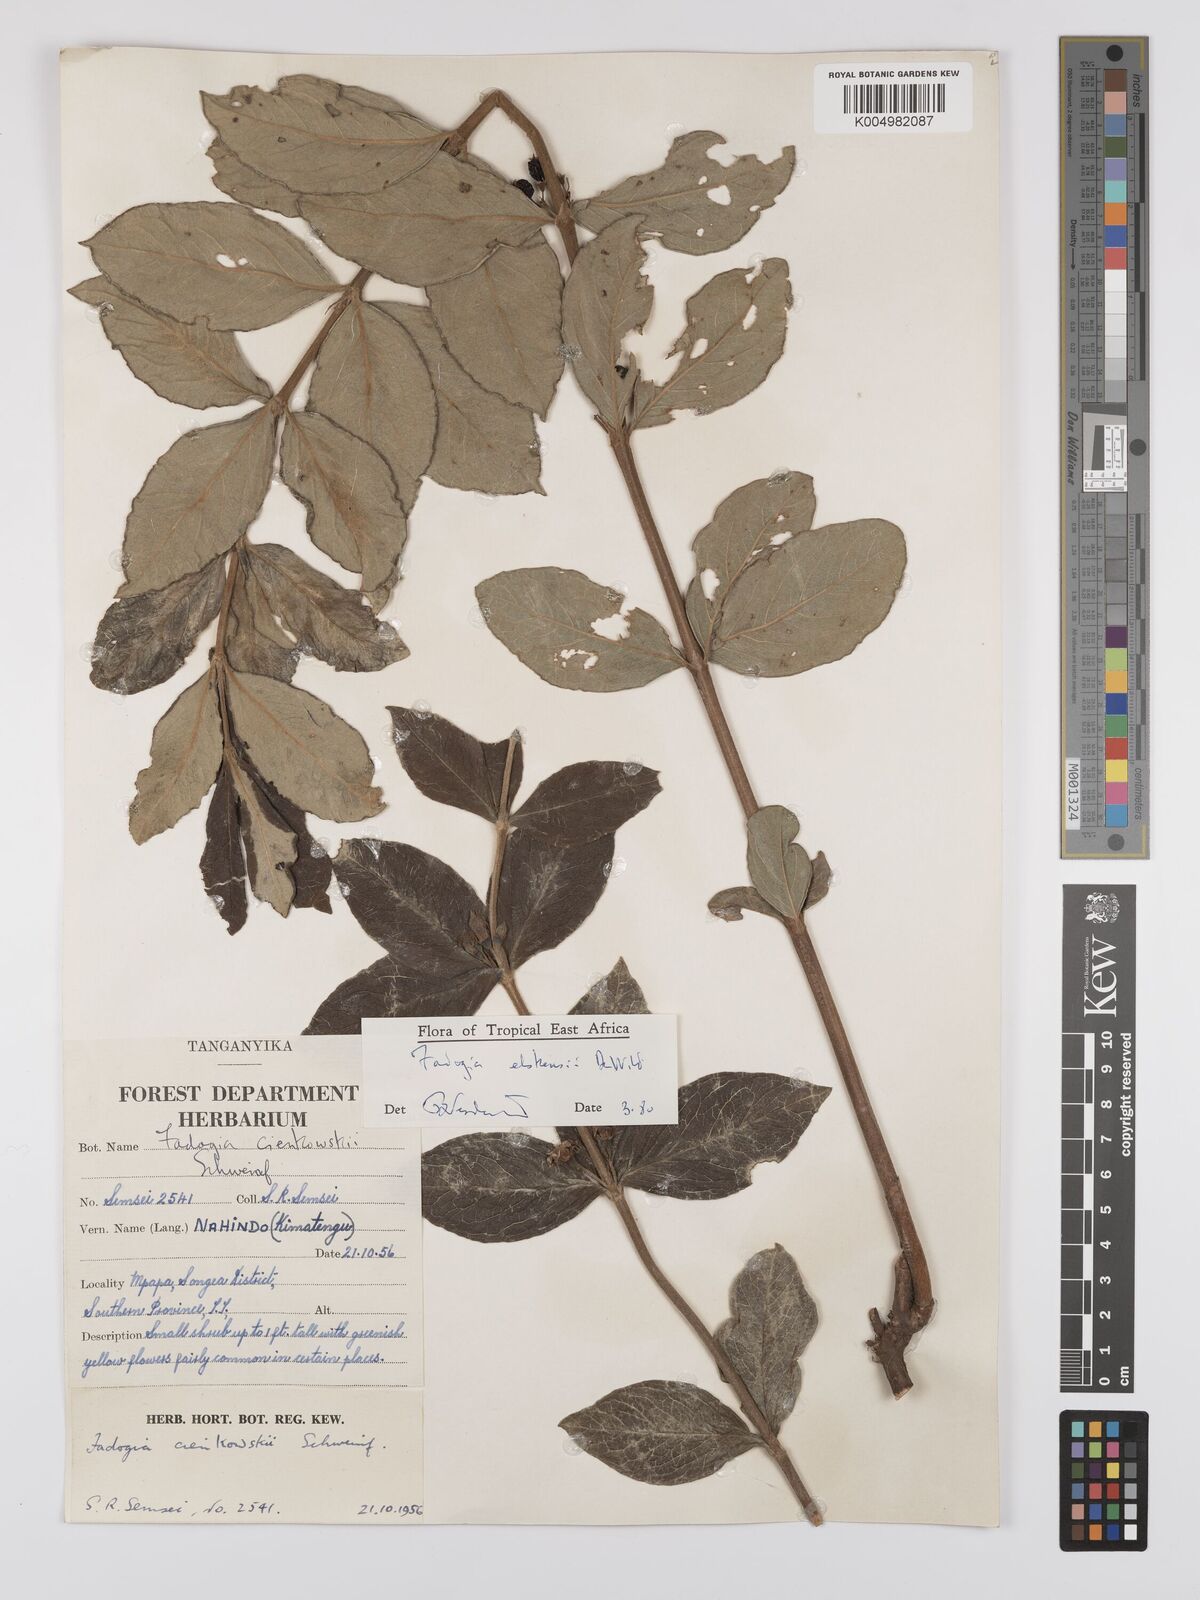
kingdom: Plantae
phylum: Tracheophyta
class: Magnoliopsida
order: Gentianales
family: Rubiaceae
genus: Fadogia
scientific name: Fadogia elskensii
